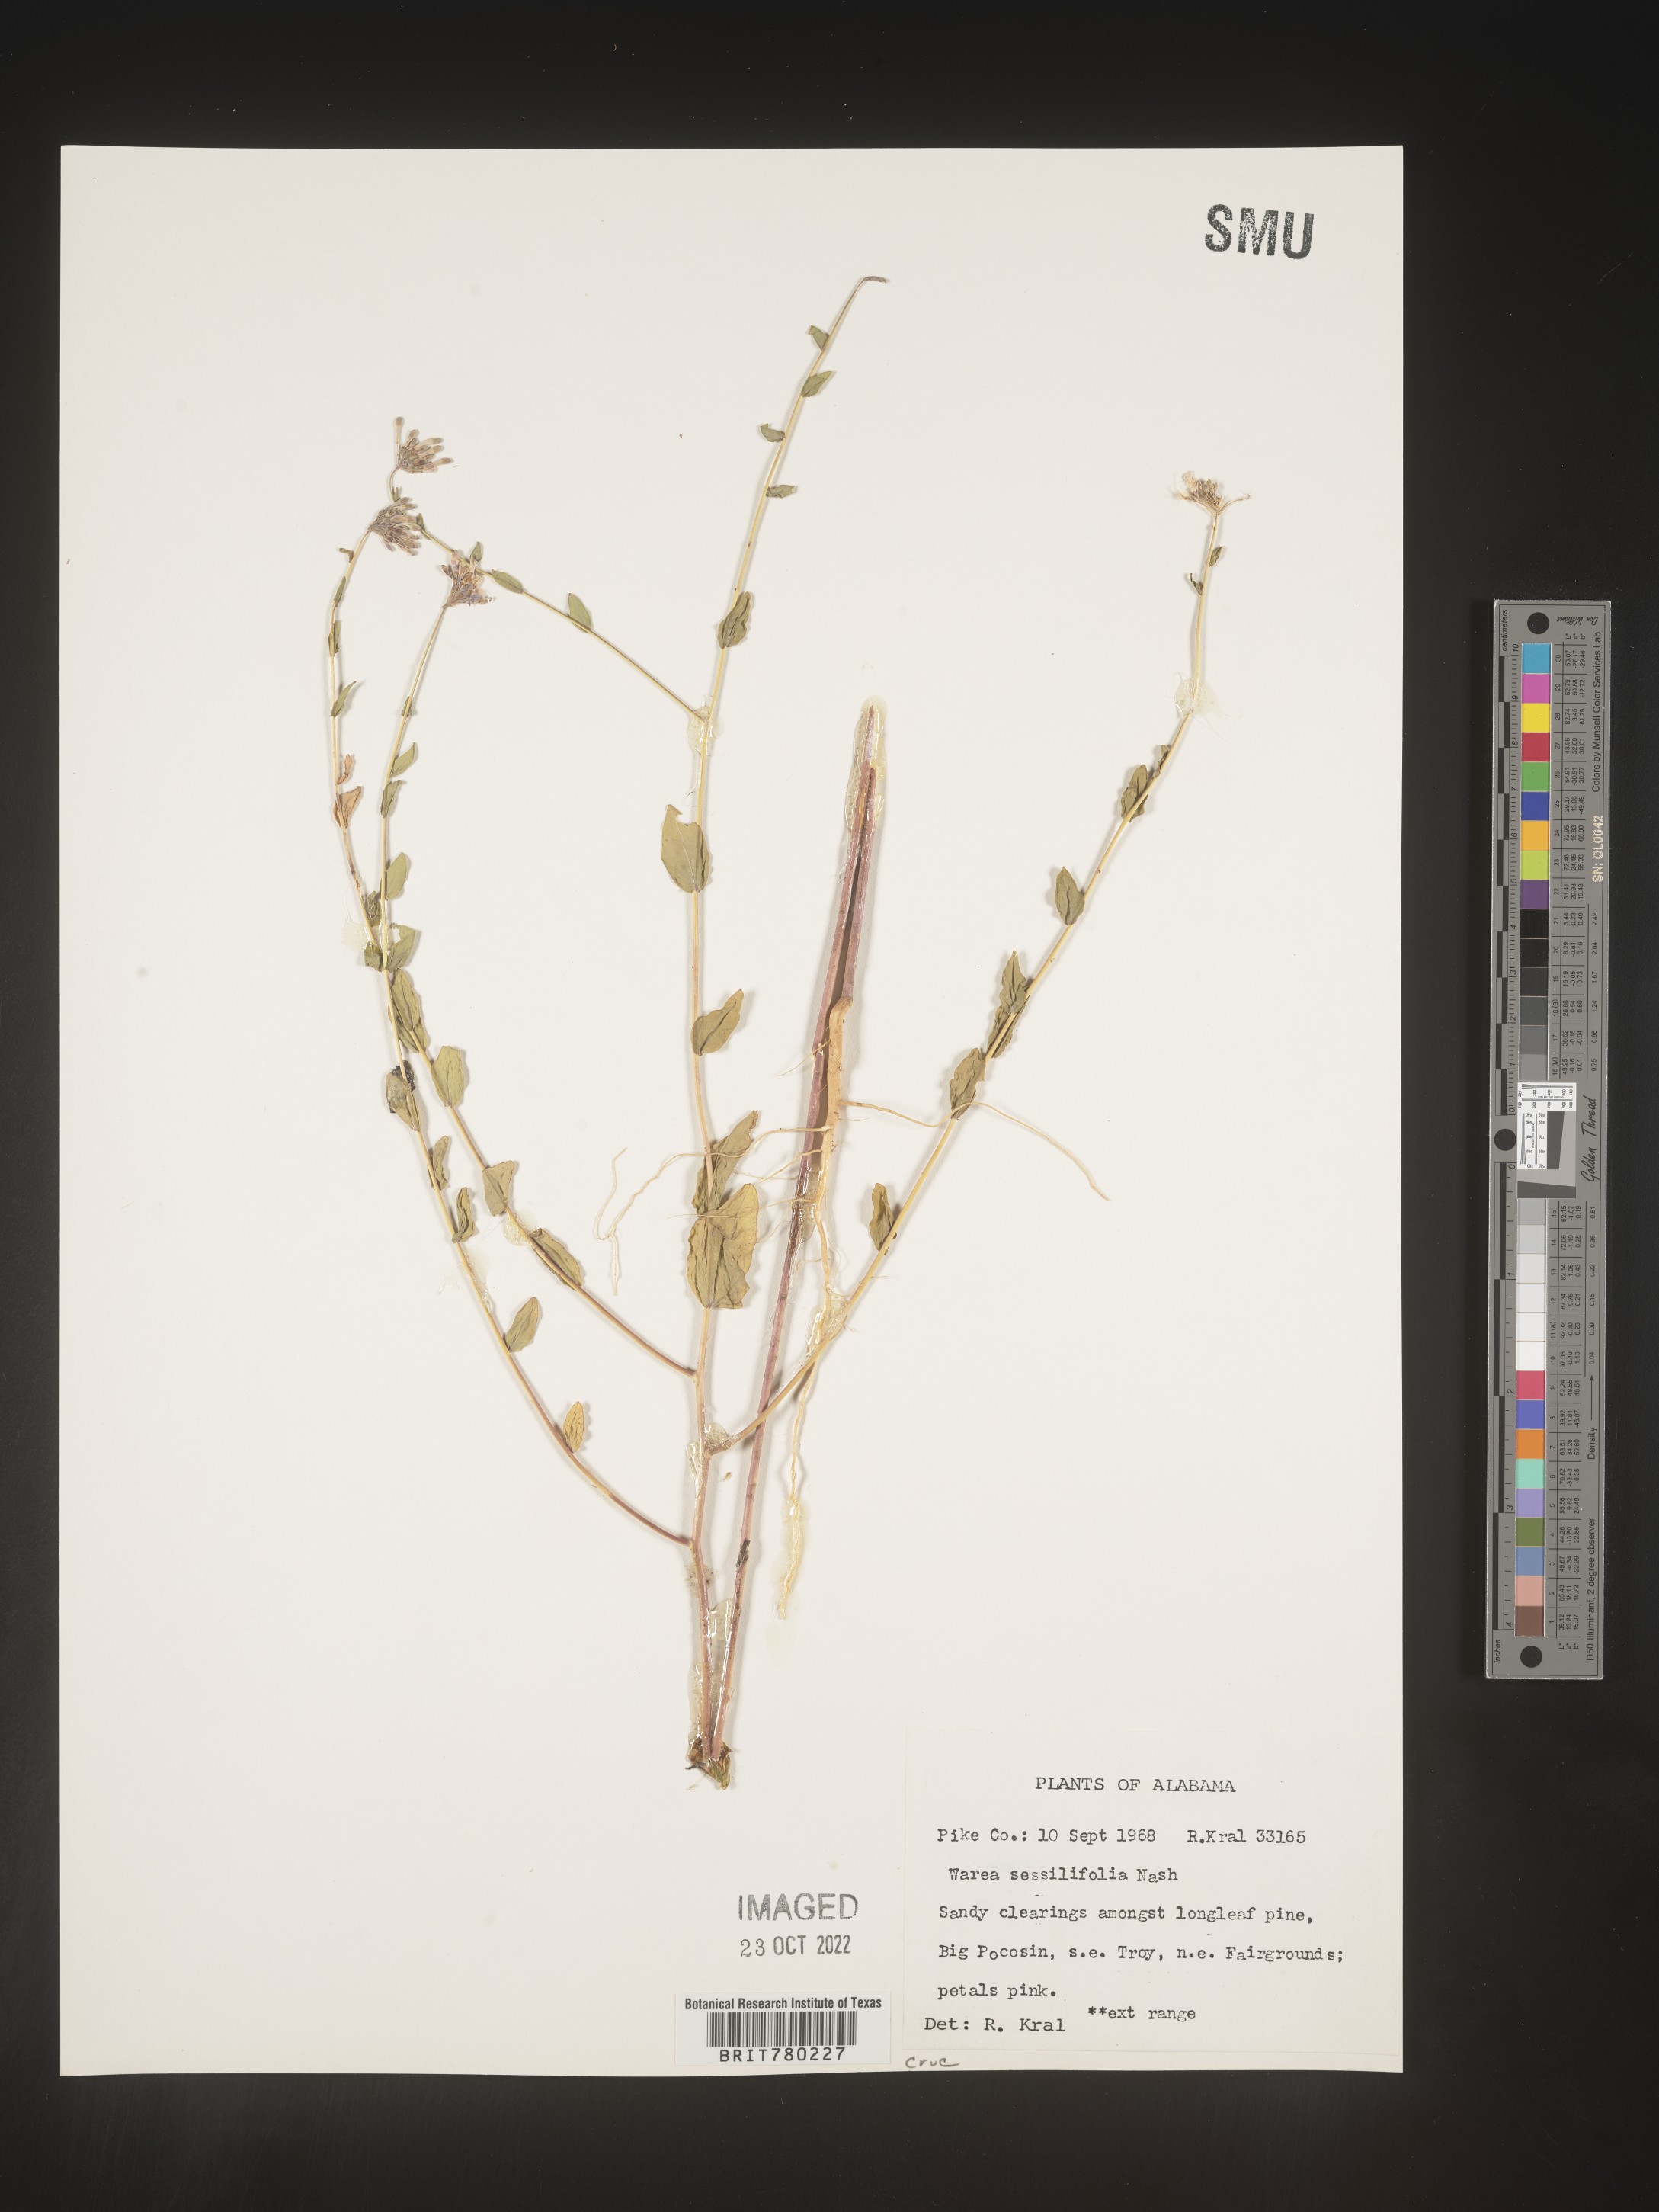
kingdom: Plantae
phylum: Tracheophyta
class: Magnoliopsida
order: Brassicales
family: Brassicaceae
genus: Warea
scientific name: Warea
